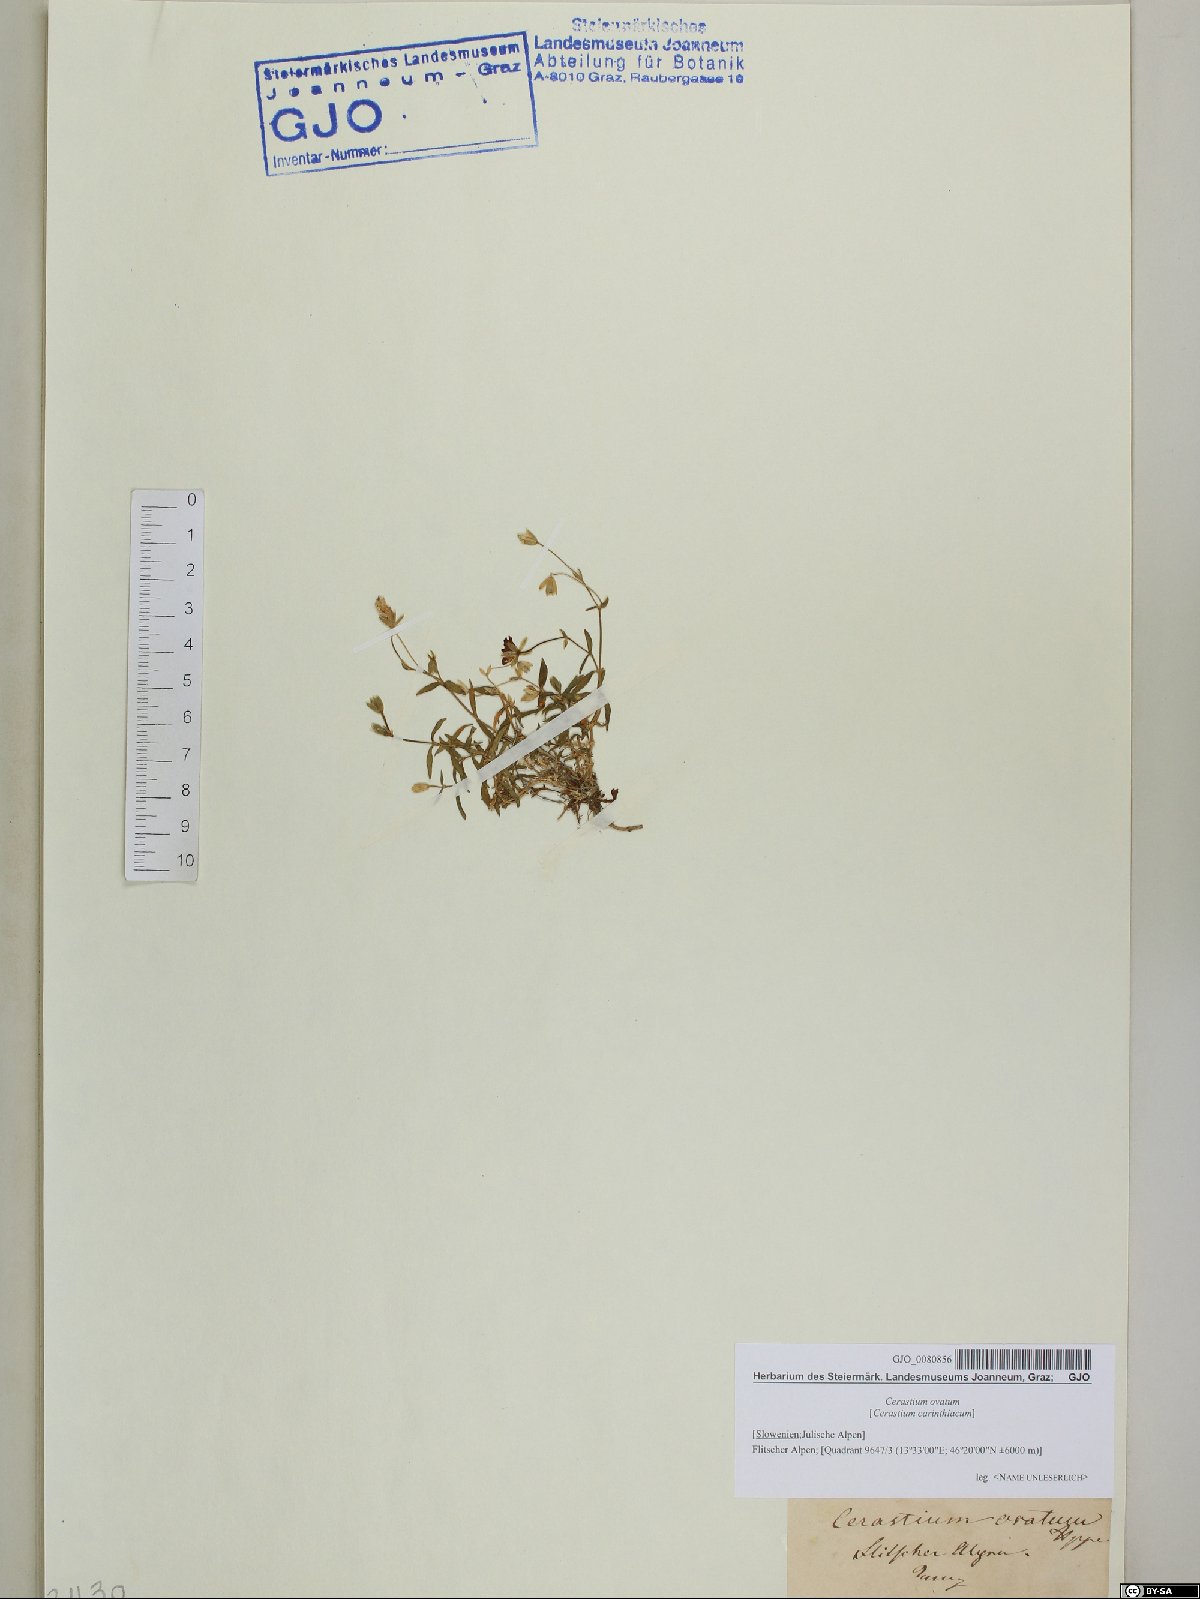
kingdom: Plantae
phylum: Tracheophyta
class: Magnoliopsida
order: Caryophyllales
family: Caryophyllaceae
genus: Cerastium
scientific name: Cerastium arvense
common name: Field mouse-ear
